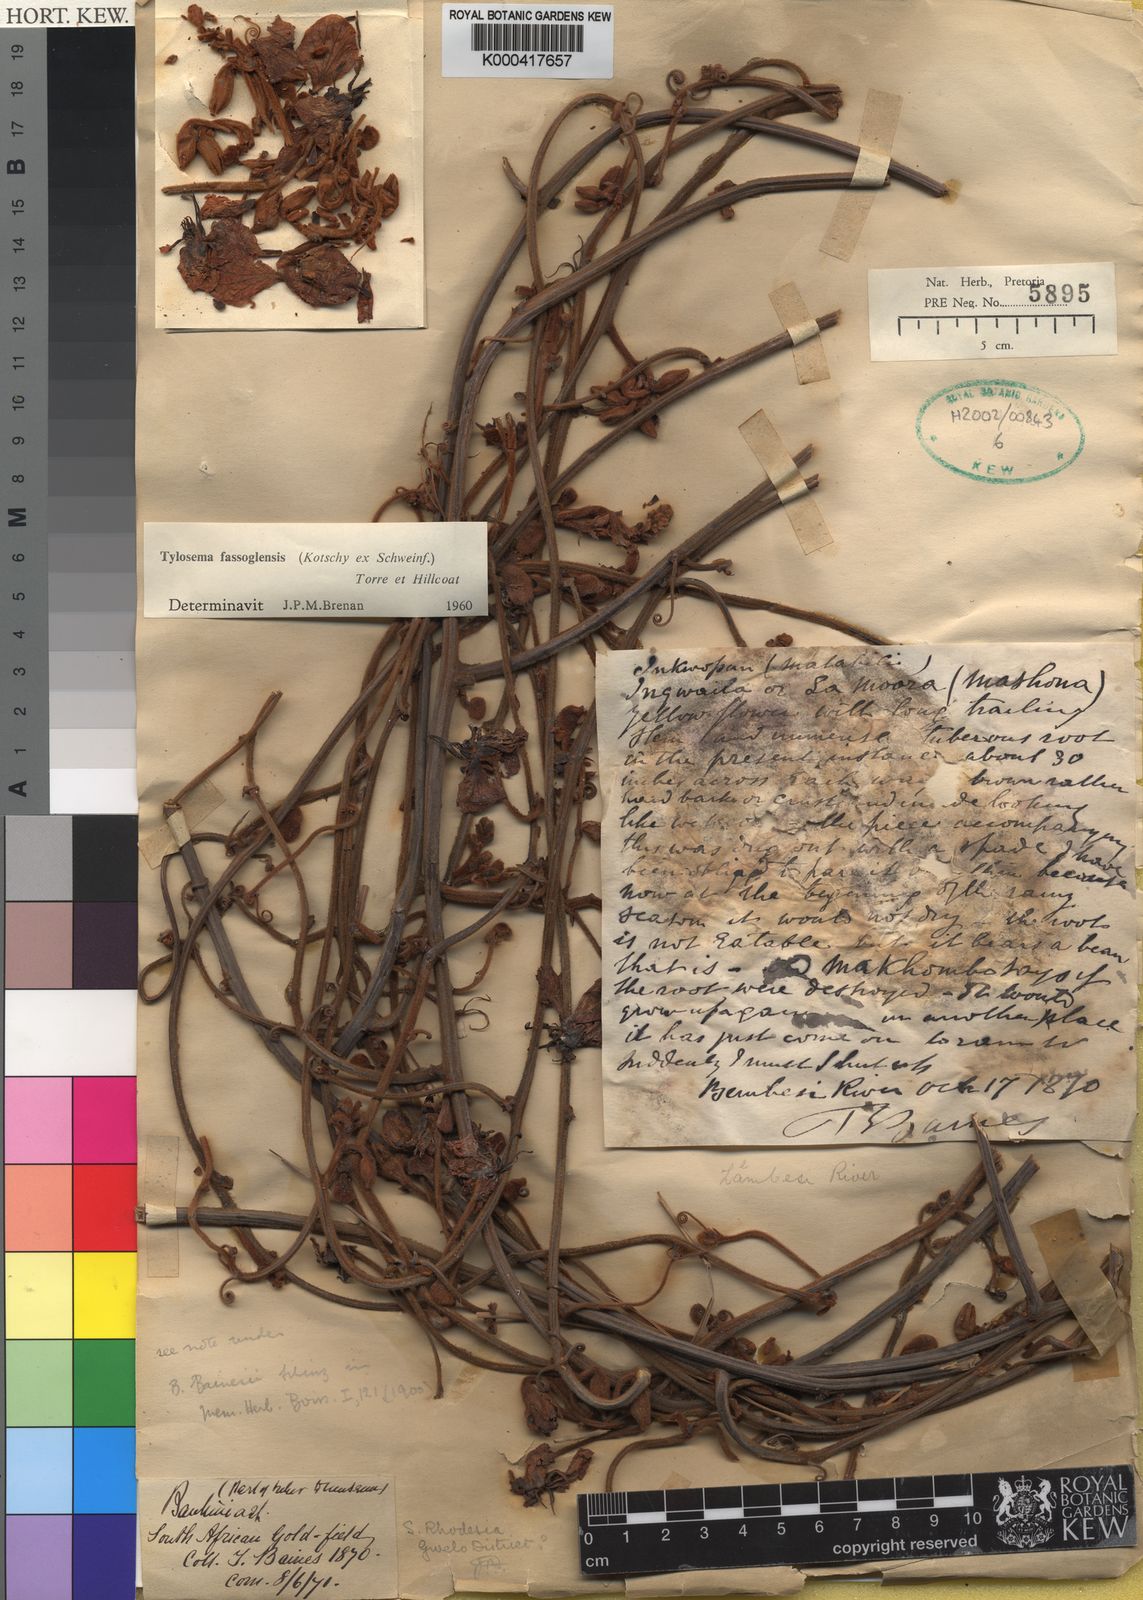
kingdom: Plantae
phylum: Tracheophyta
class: Magnoliopsida
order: Fabales
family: Fabaceae
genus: Tylosema
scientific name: Tylosema fassoglense
